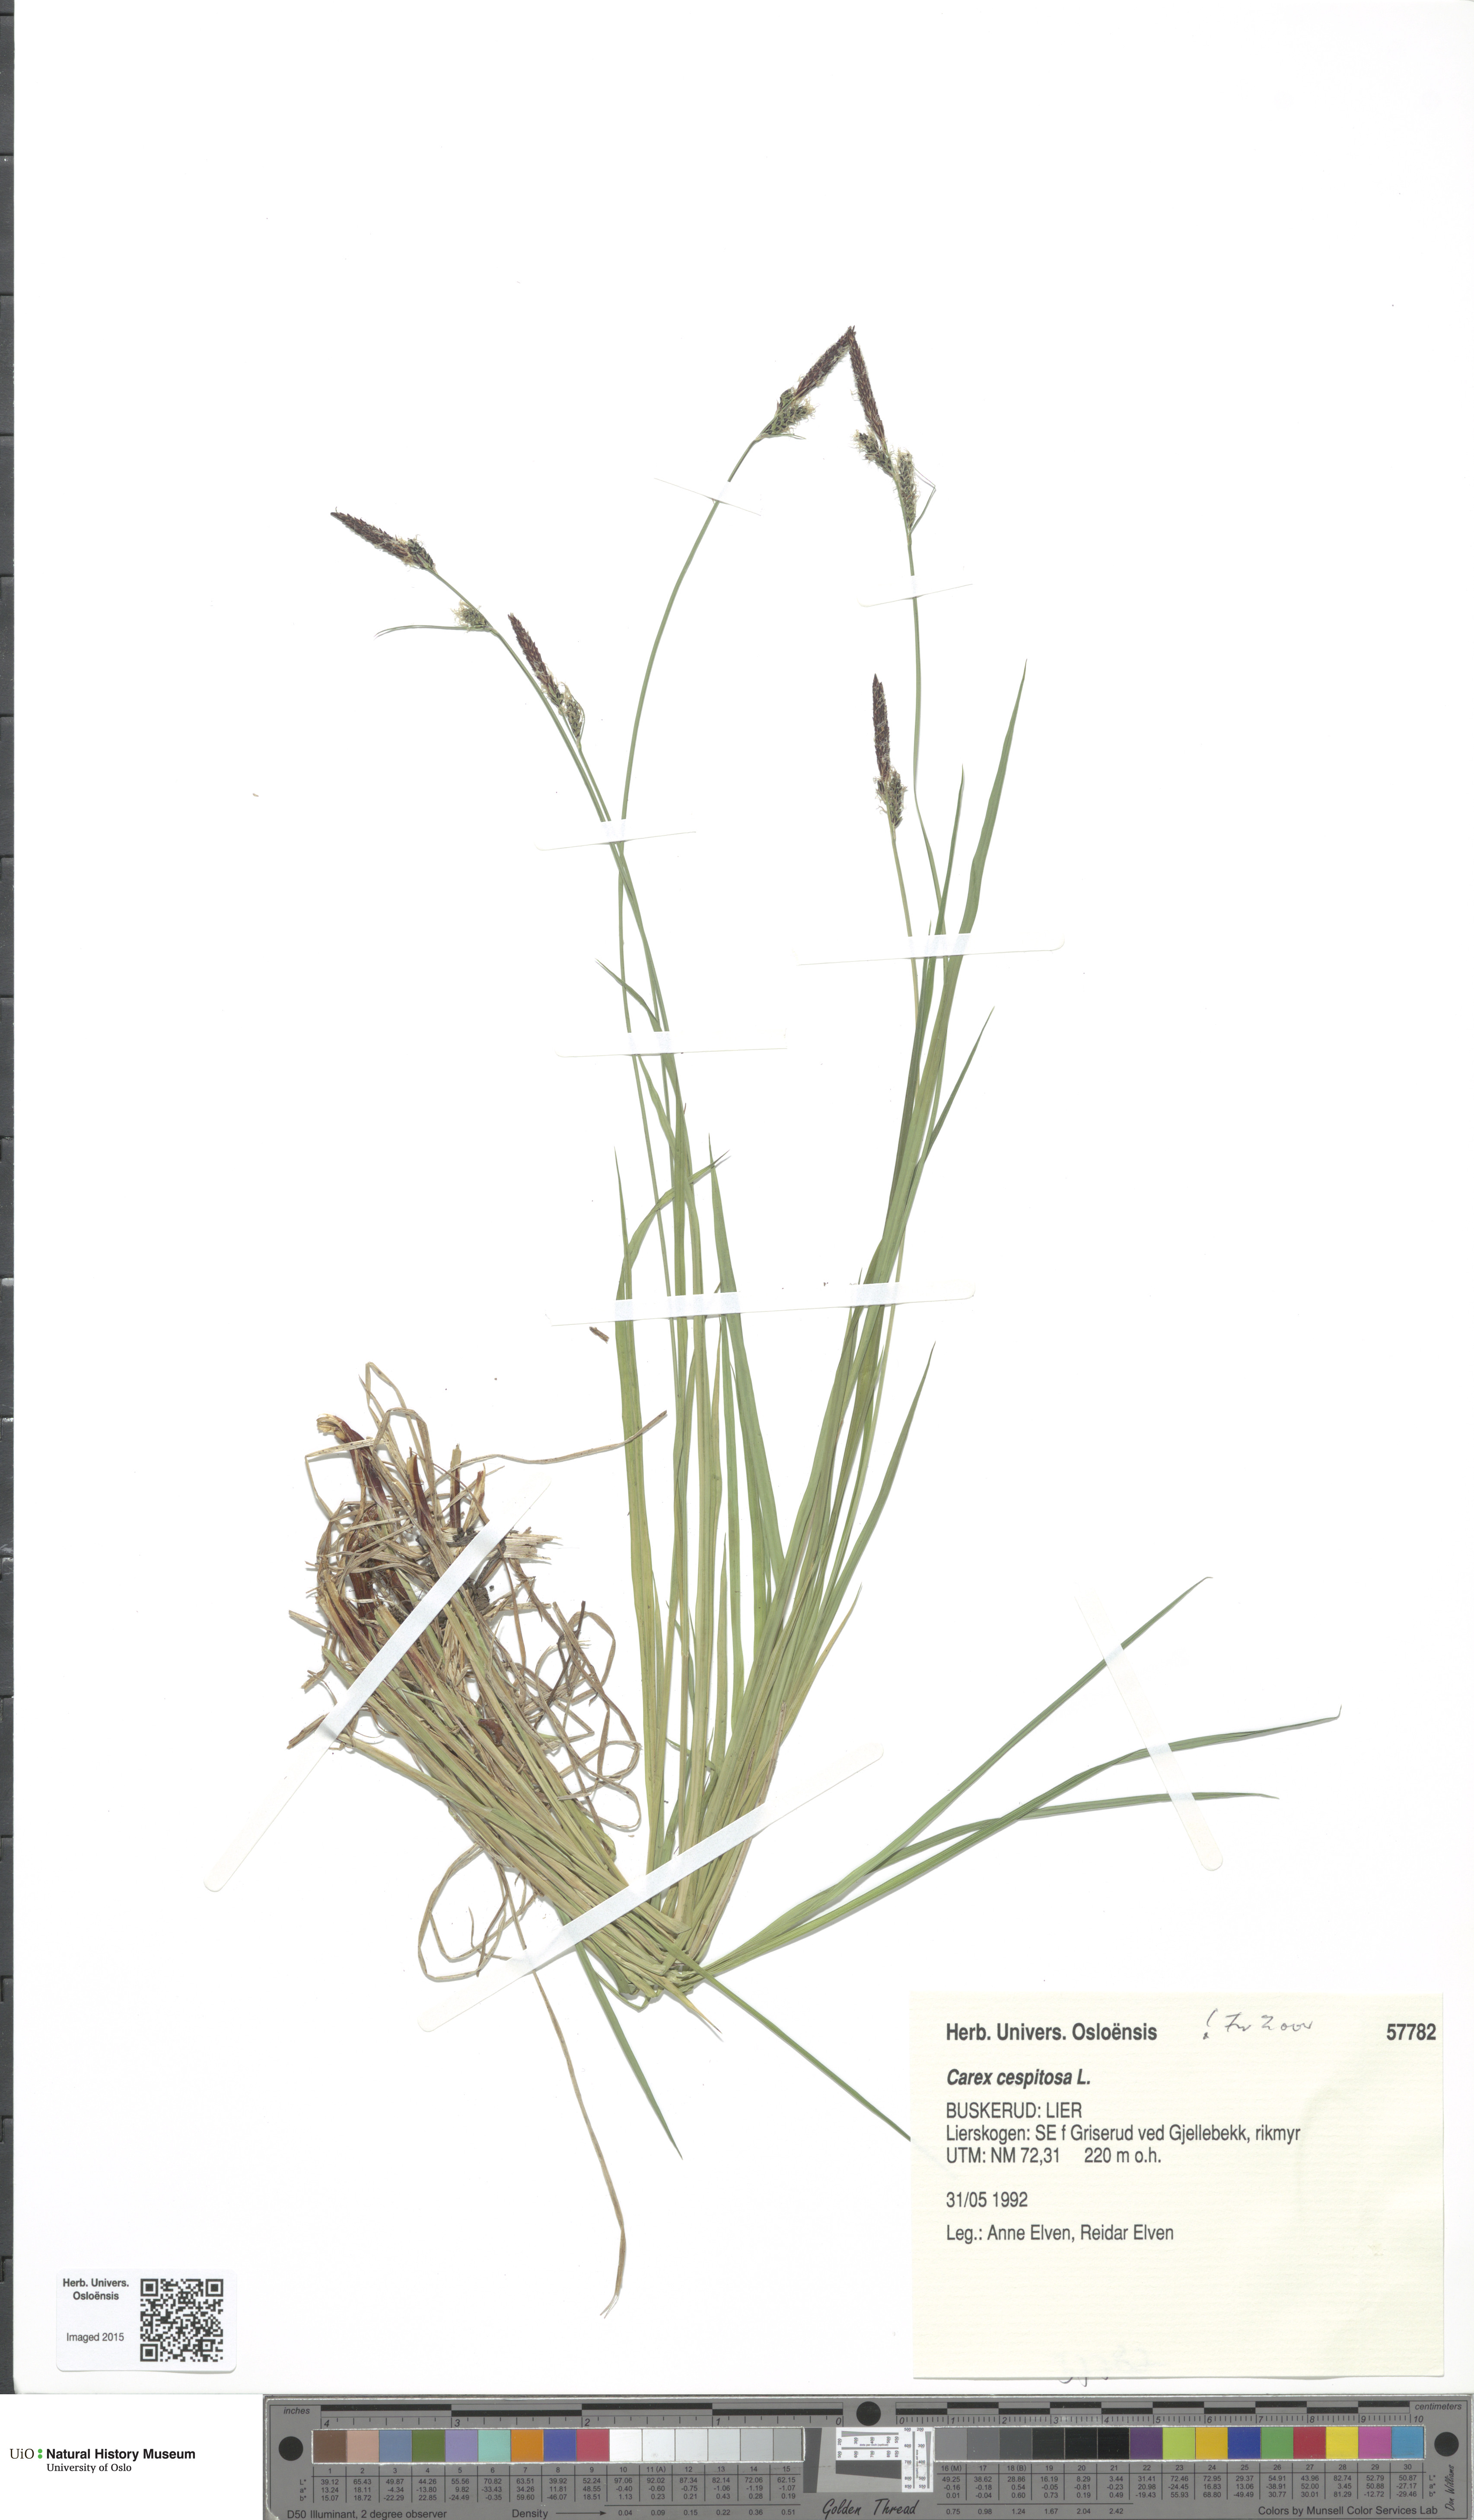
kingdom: Plantae
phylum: Tracheophyta
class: Liliopsida
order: Poales
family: Cyperaceae
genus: Carex
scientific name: Carex cespitosa
